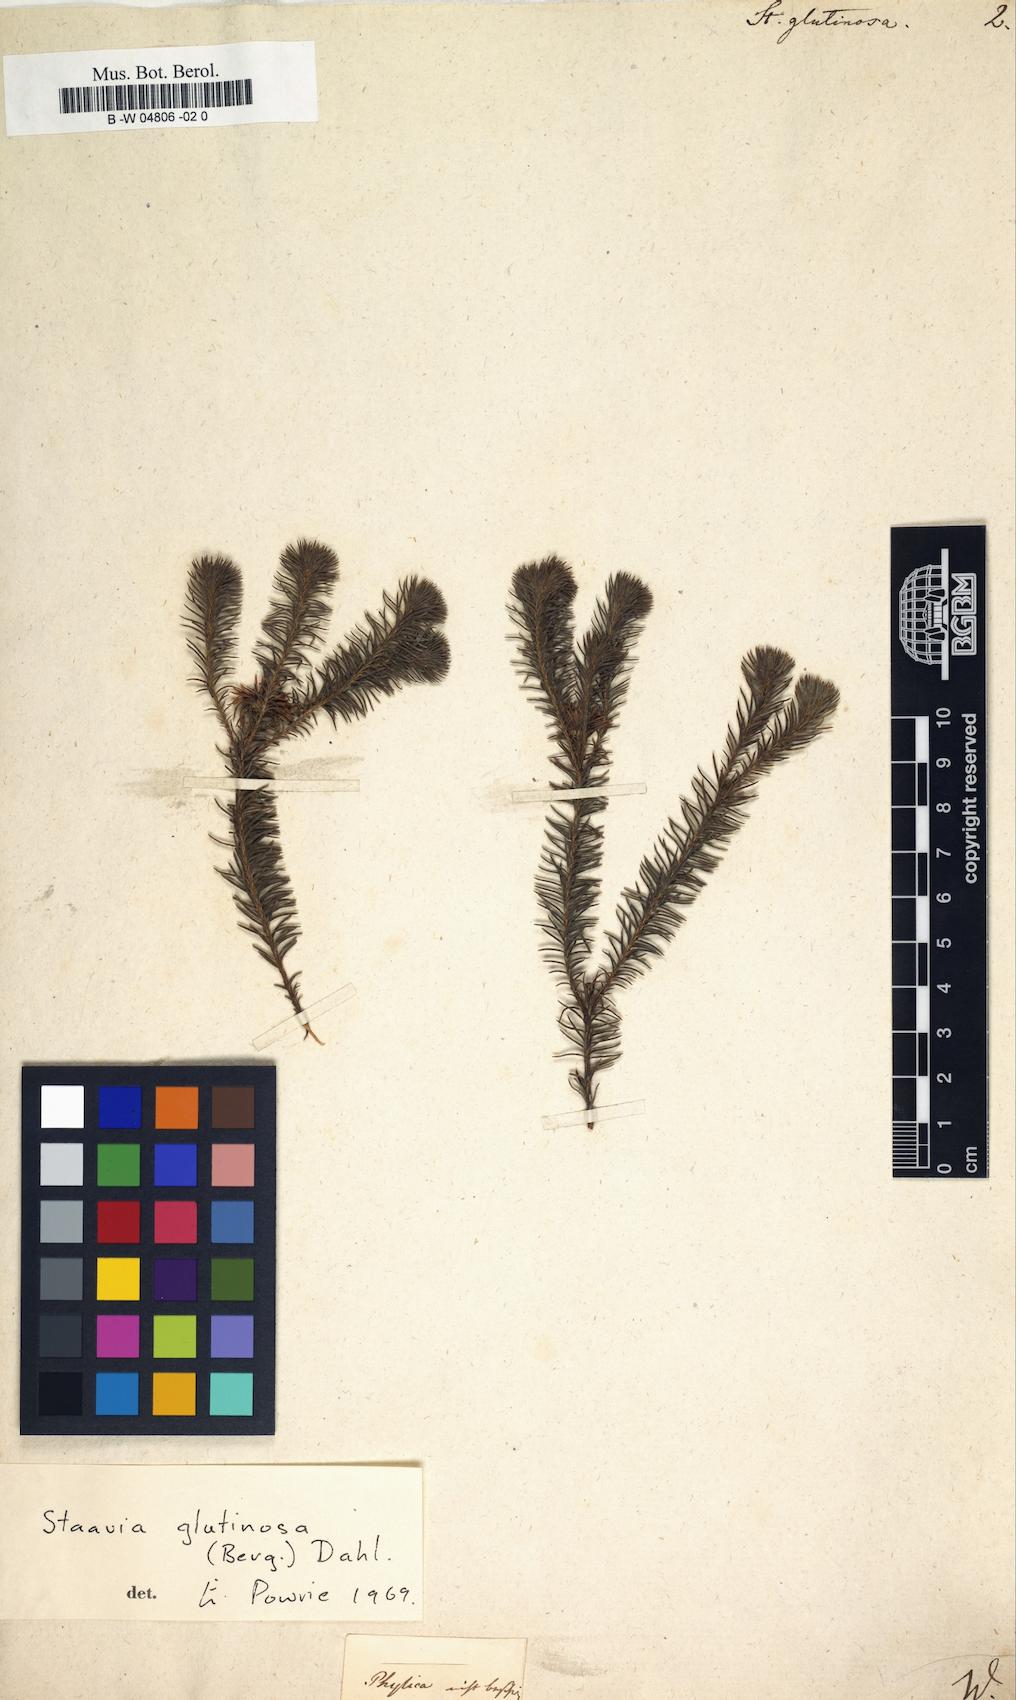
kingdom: Plantae
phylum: Tracheophyta
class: Magnoliopsida
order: Bruniales
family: Bruniaceae
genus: Staavia
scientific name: Staavia glutinosa
